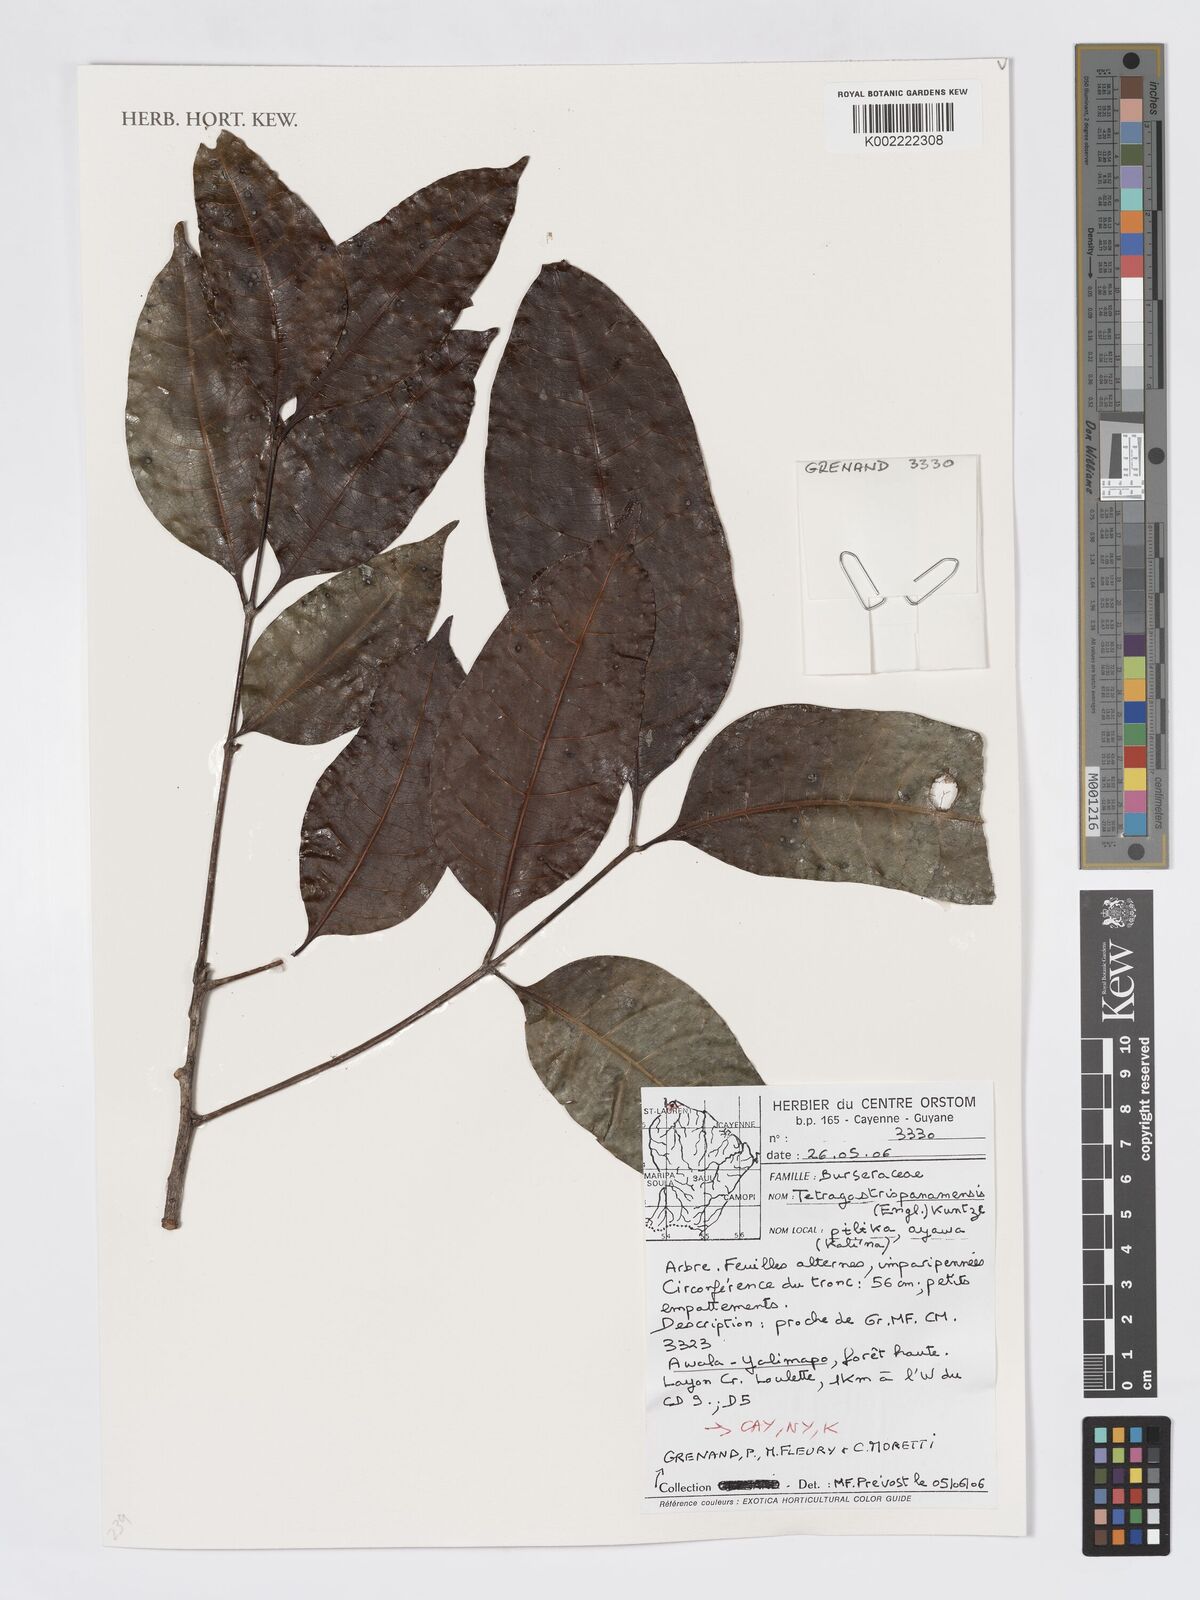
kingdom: Plantae
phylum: Tracheophyta
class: Magnoliopsida
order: Sapindales
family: Burseraceae
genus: Tetragastris
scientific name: Tetragastris panamensis
